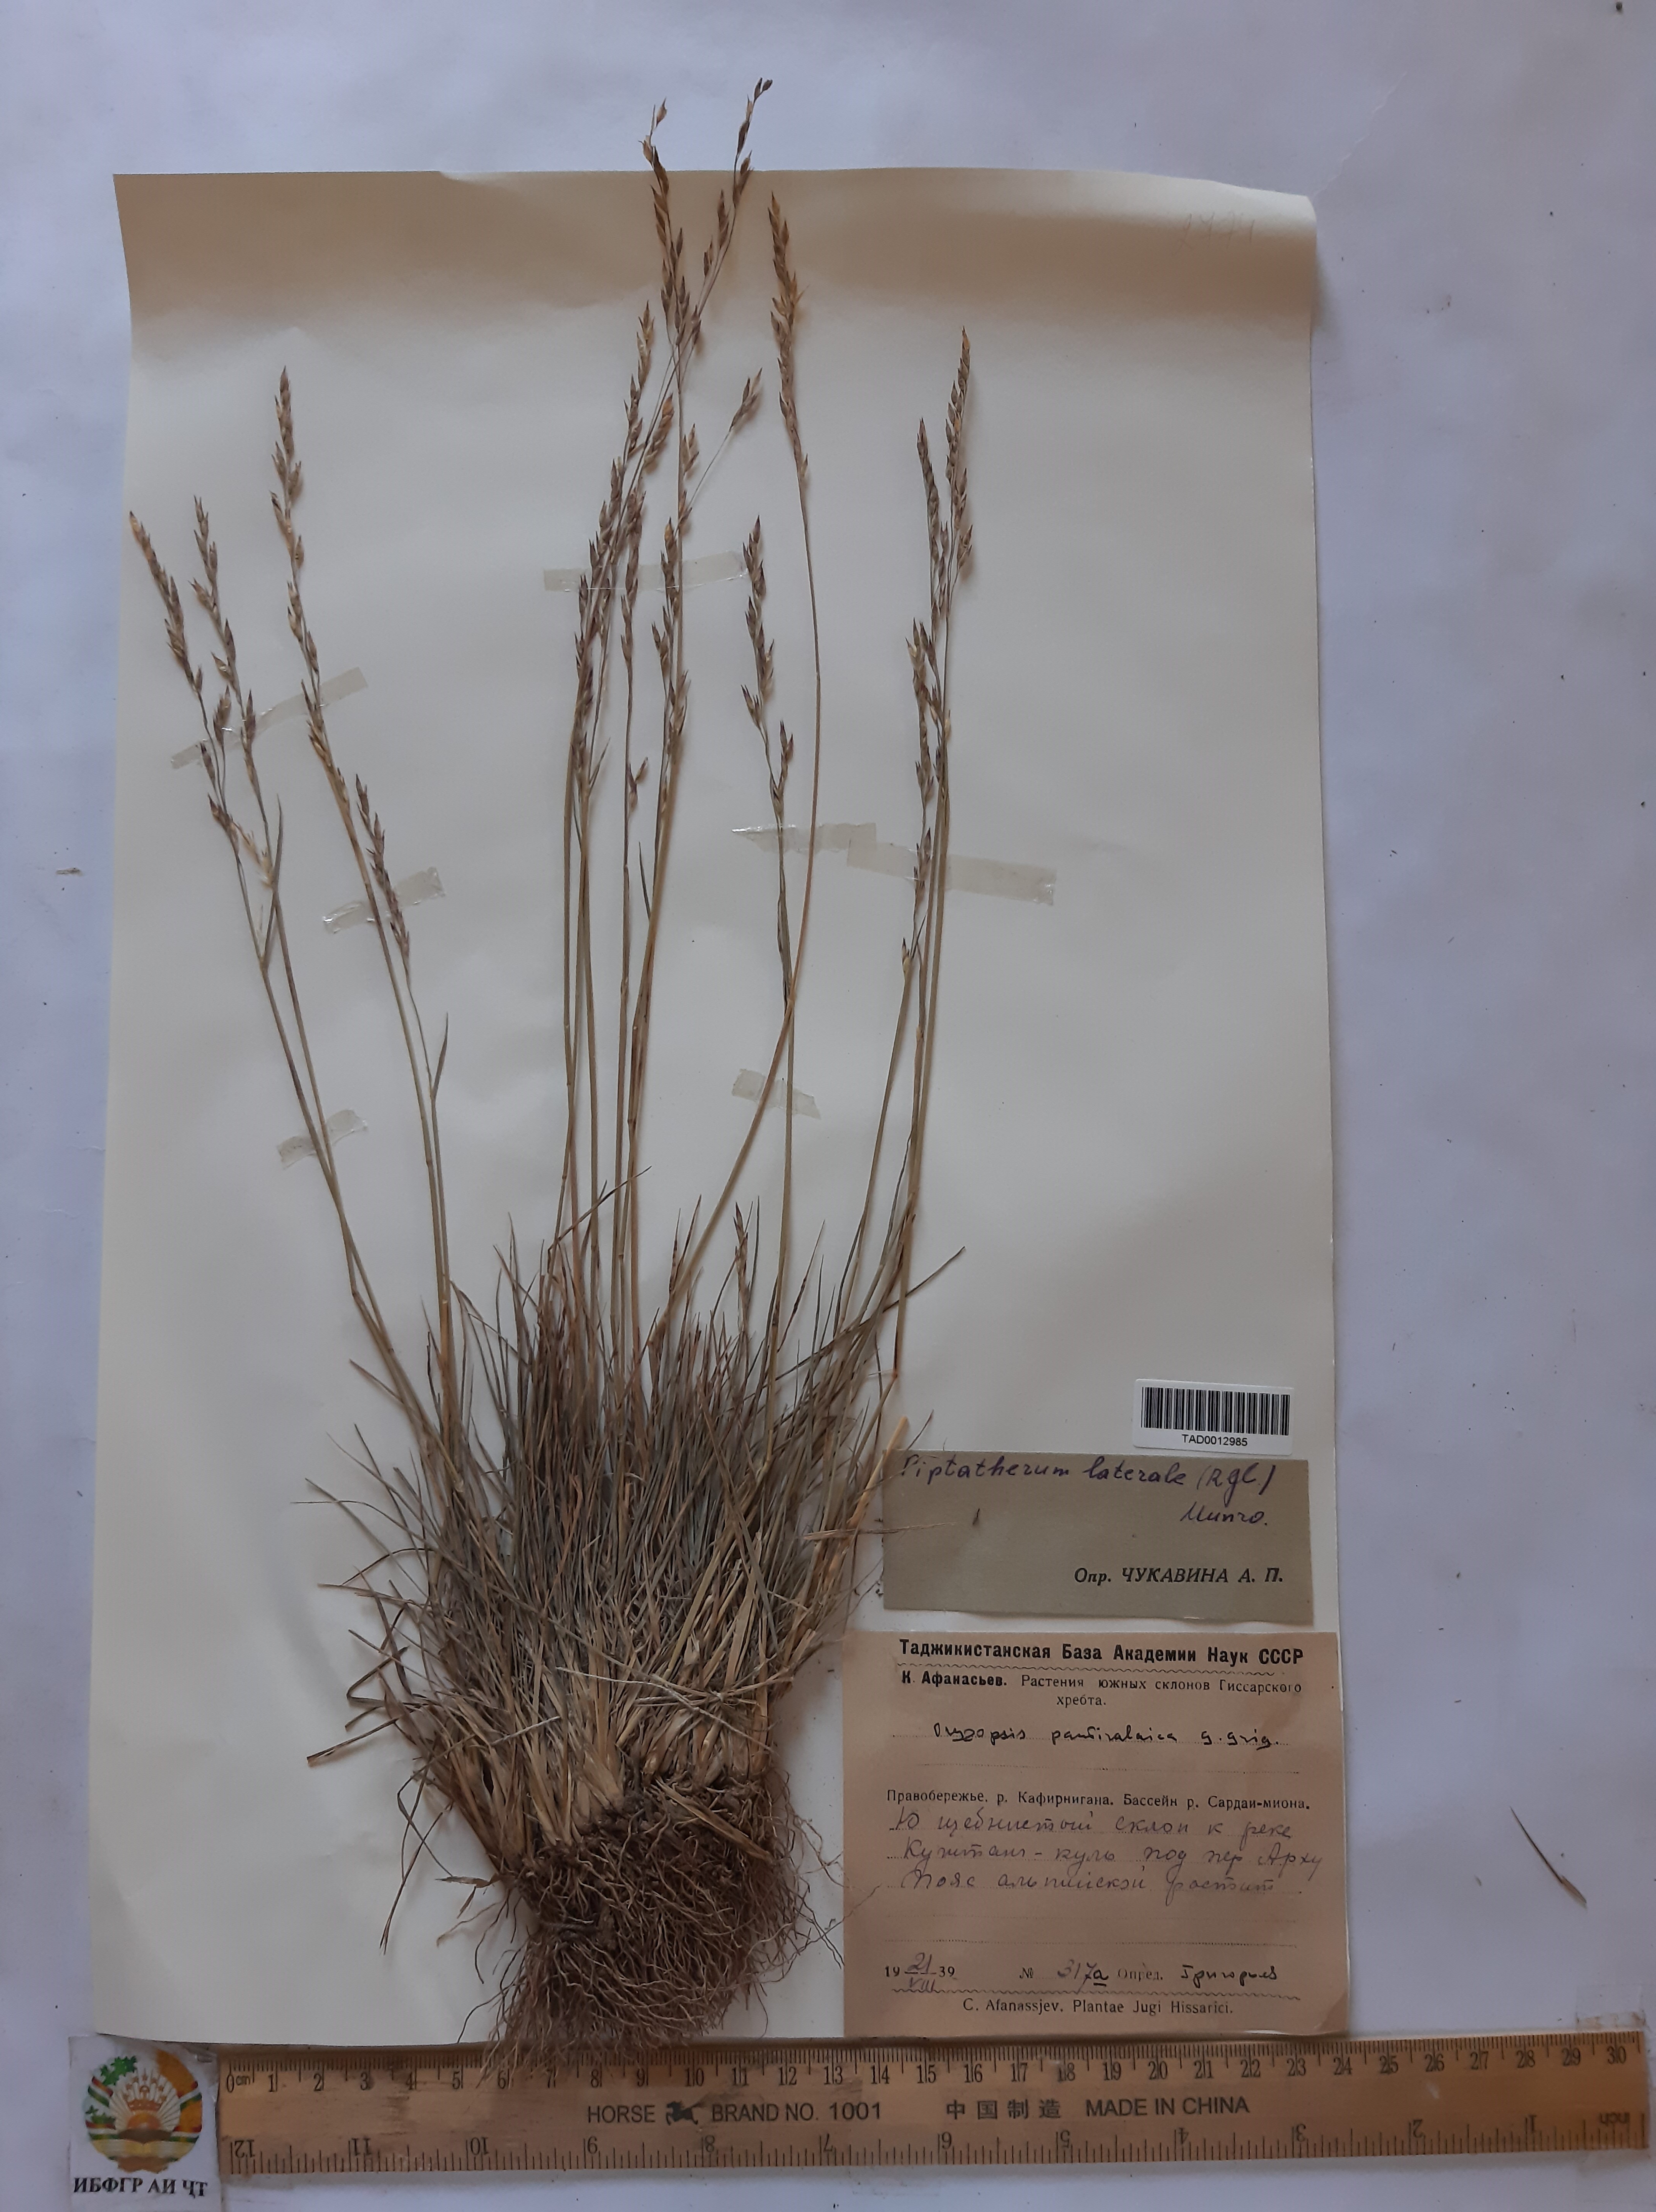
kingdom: Plantae
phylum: Tracheophyta
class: Liliopsida
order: Poales
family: Poaceae
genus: Piptatherum
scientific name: Piptatherum laterale
